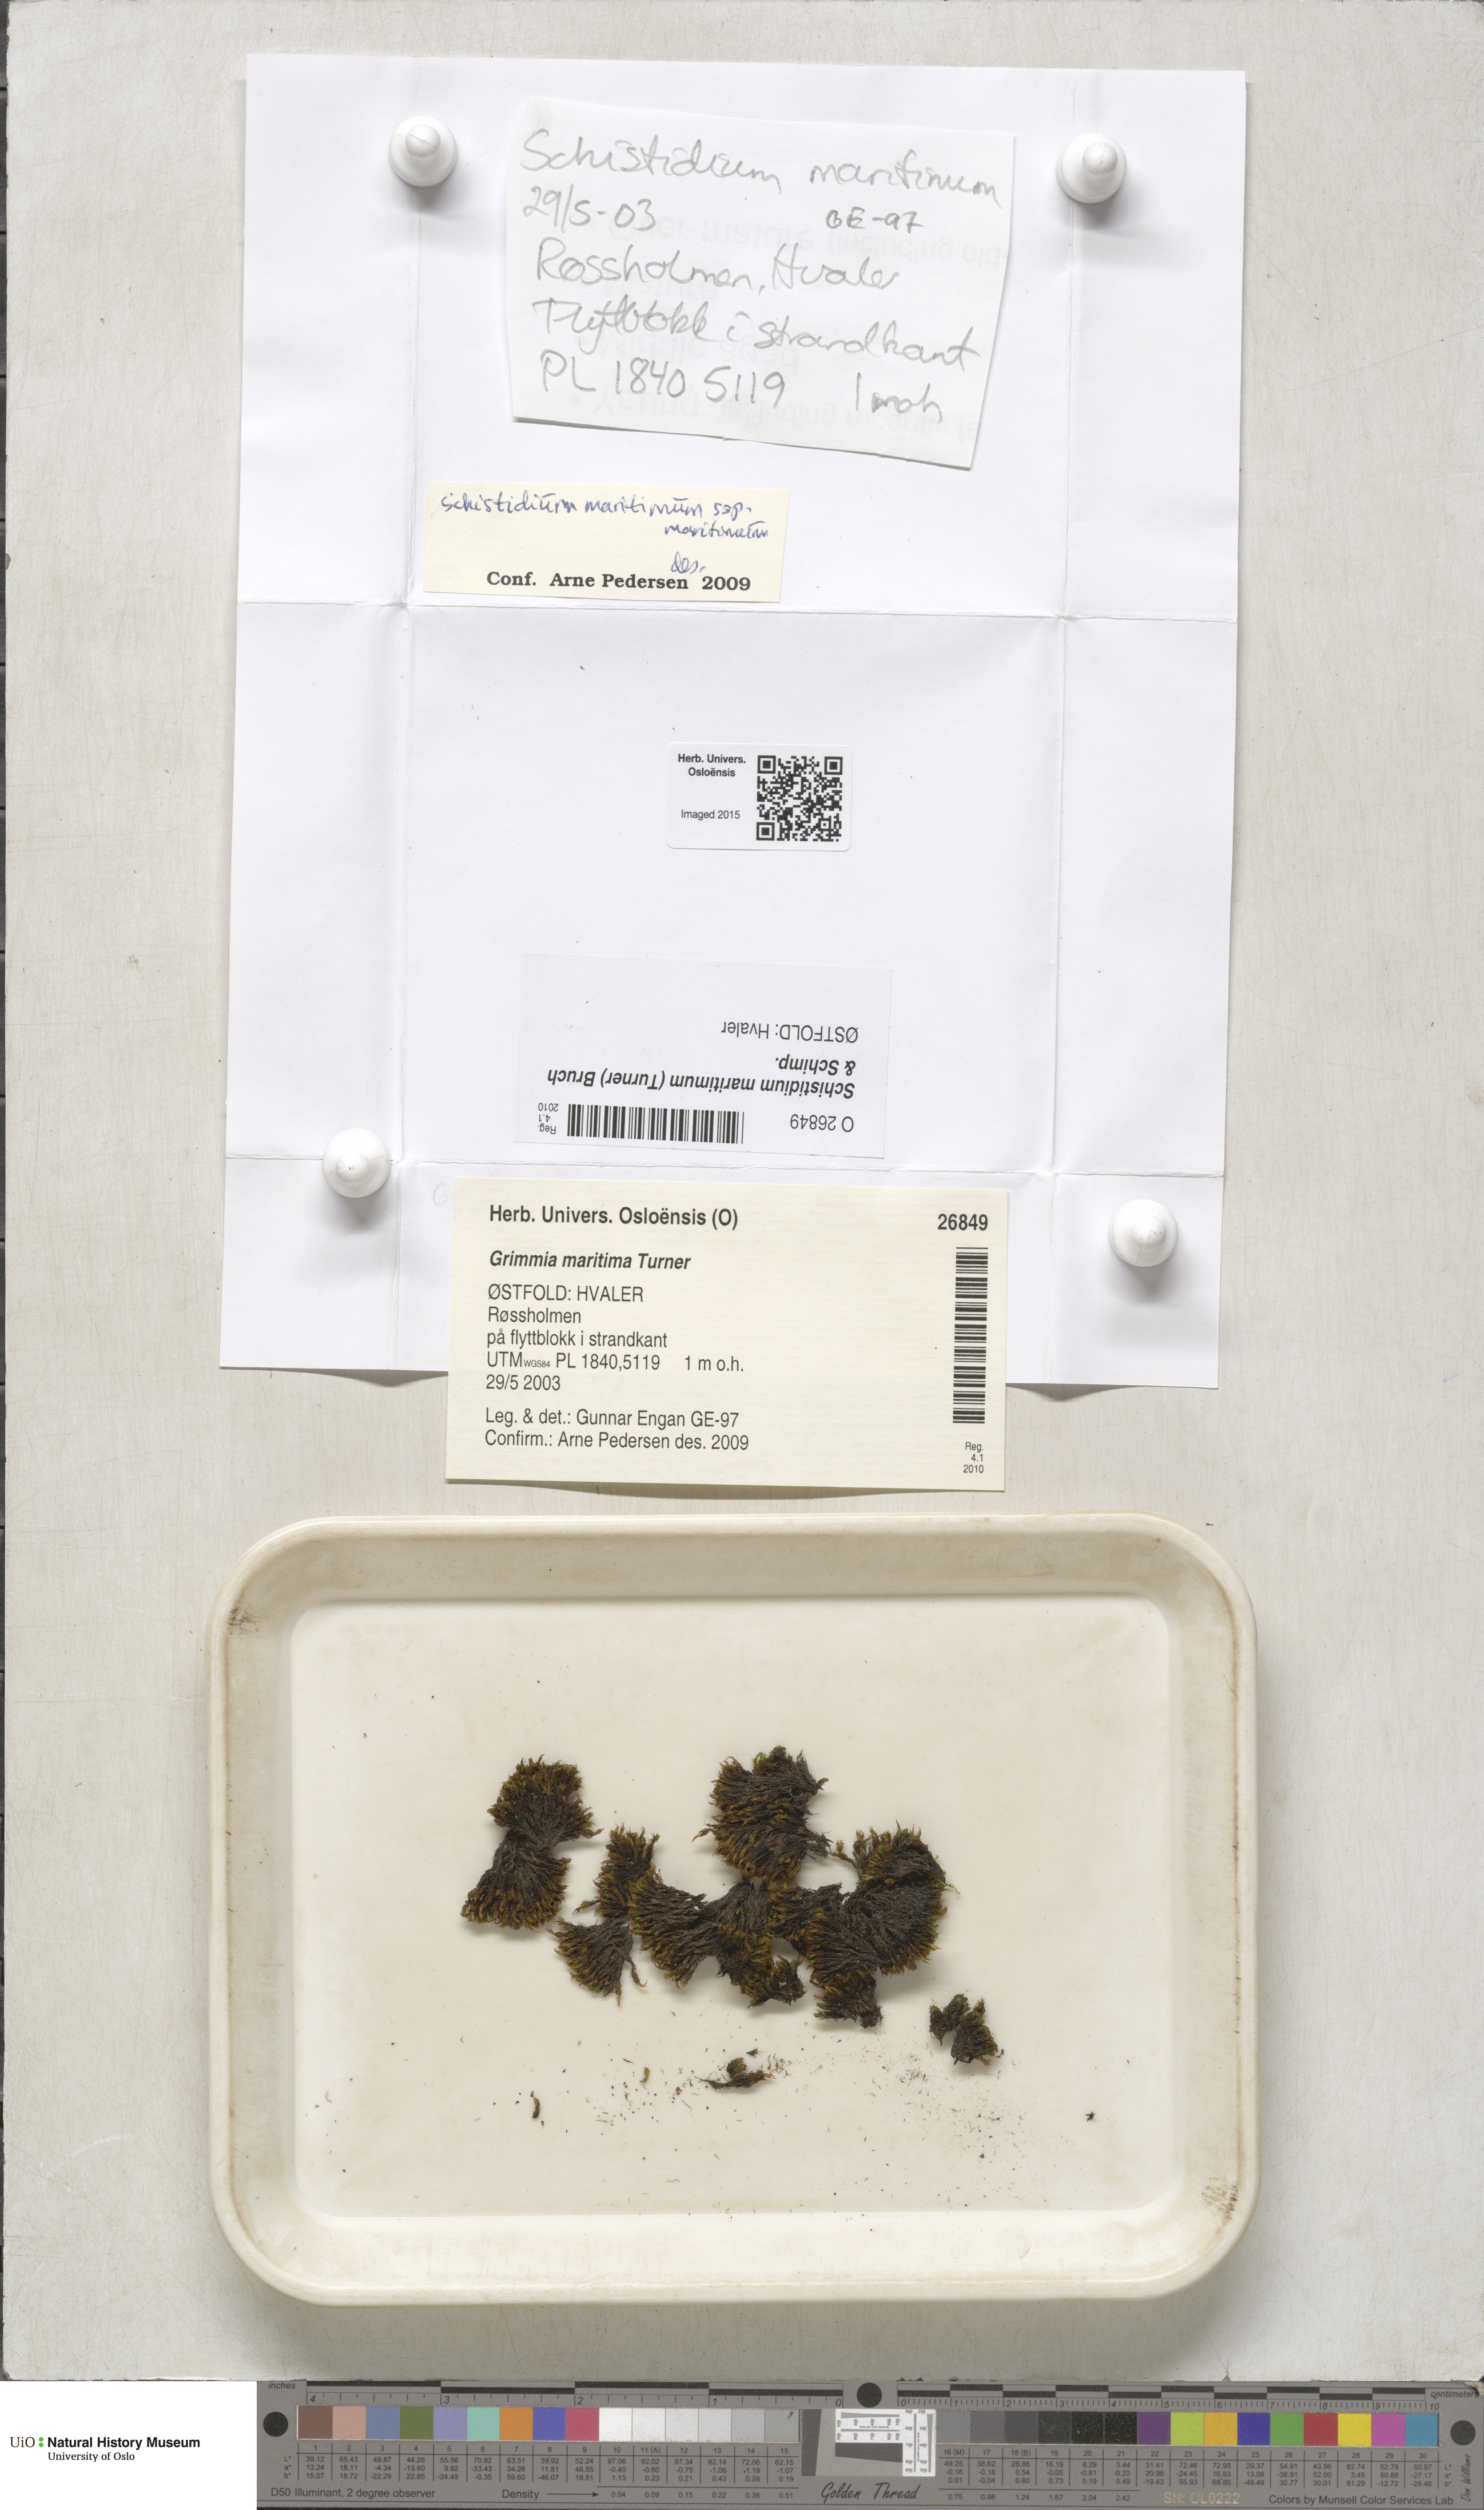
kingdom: Plantae
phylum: Bryophyta
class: Bryopsida
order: Grimmiales
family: Grimmiaceae
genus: Schistidium
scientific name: Schistidium maritimum
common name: Seaside bloom moss
